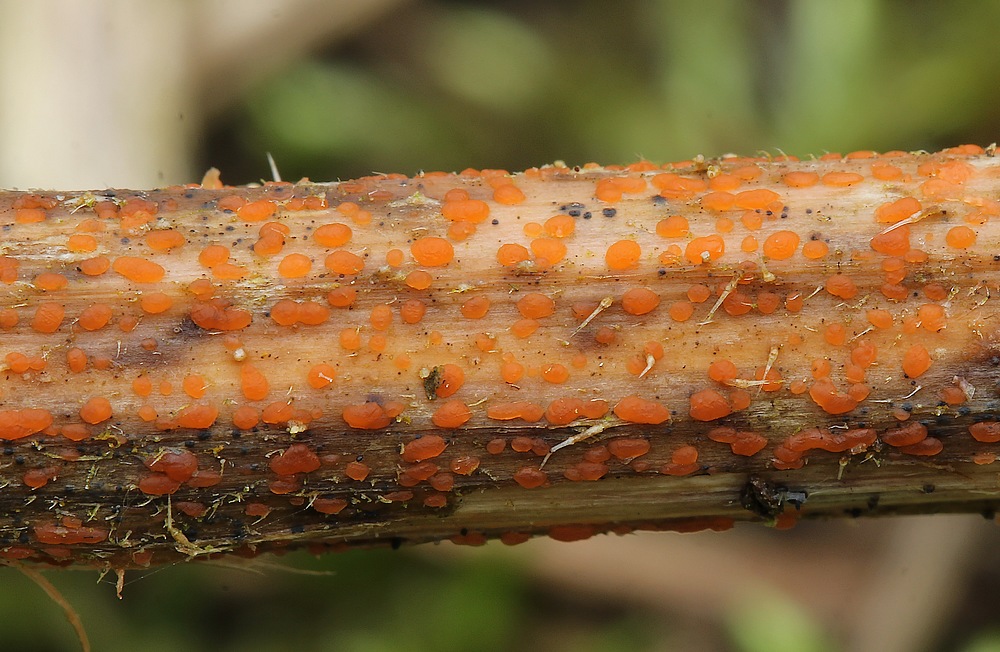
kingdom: Fungi
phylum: Ascomycota
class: Leotiomycetes
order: Helotiales
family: Calloriaceae
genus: Calloria
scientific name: Calloria urticae
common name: nælde-orangeskive
